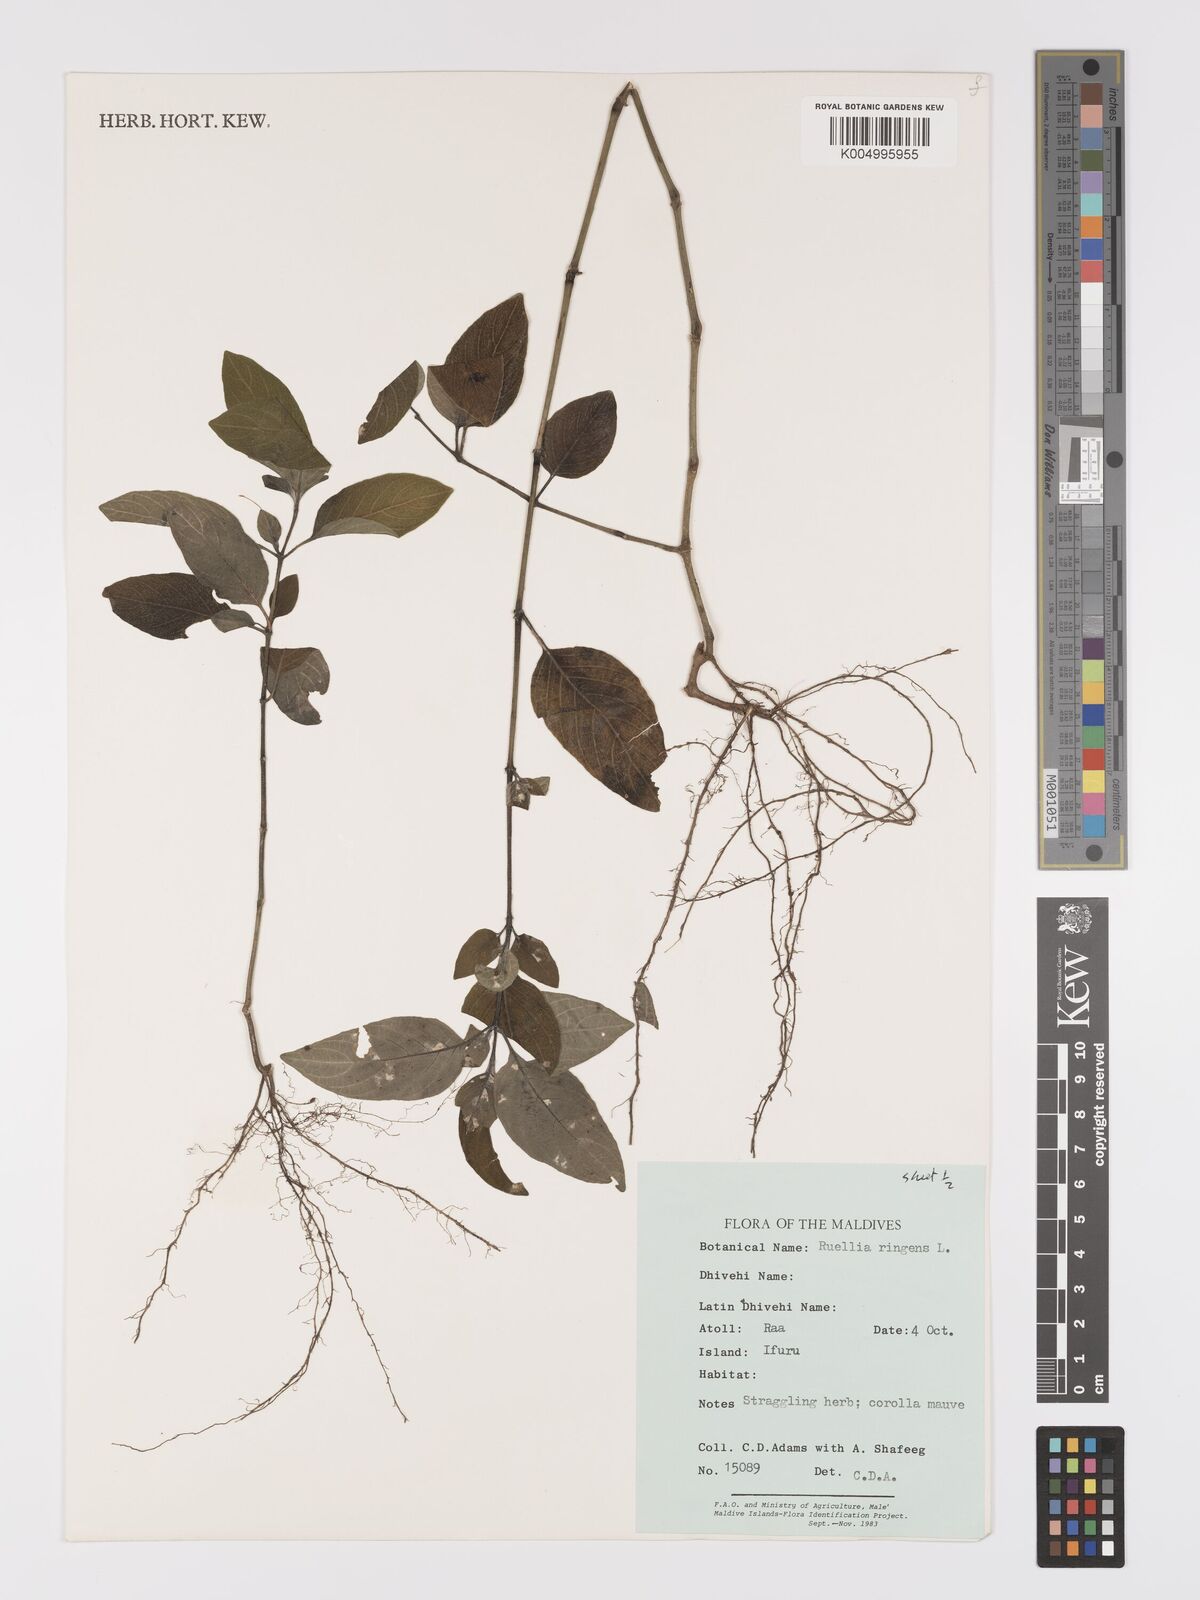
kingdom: Plantae
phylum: Tracheophyta
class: Magnoliopsida
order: Lamiales
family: Acanthaceae
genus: Ruellia
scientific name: Ruellia
